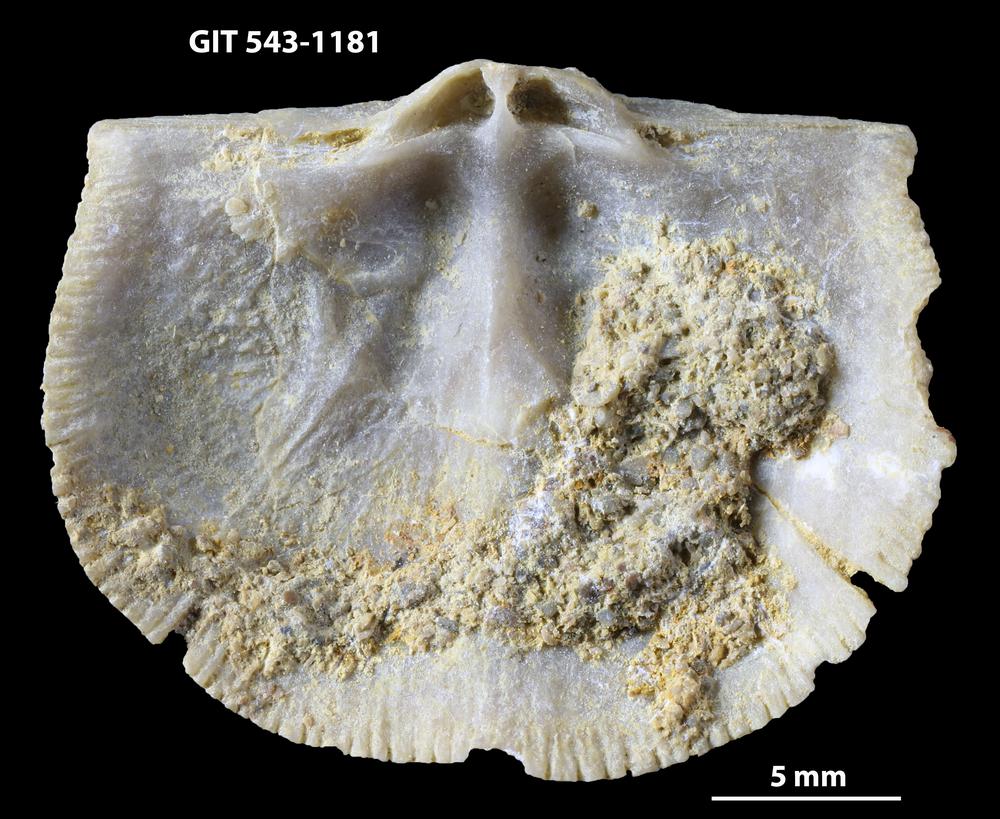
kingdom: Animalia
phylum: Brachiopoda
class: Rhynchonellata
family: Clitambonitidae
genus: Vellamo
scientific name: Vellamo oandoensis
